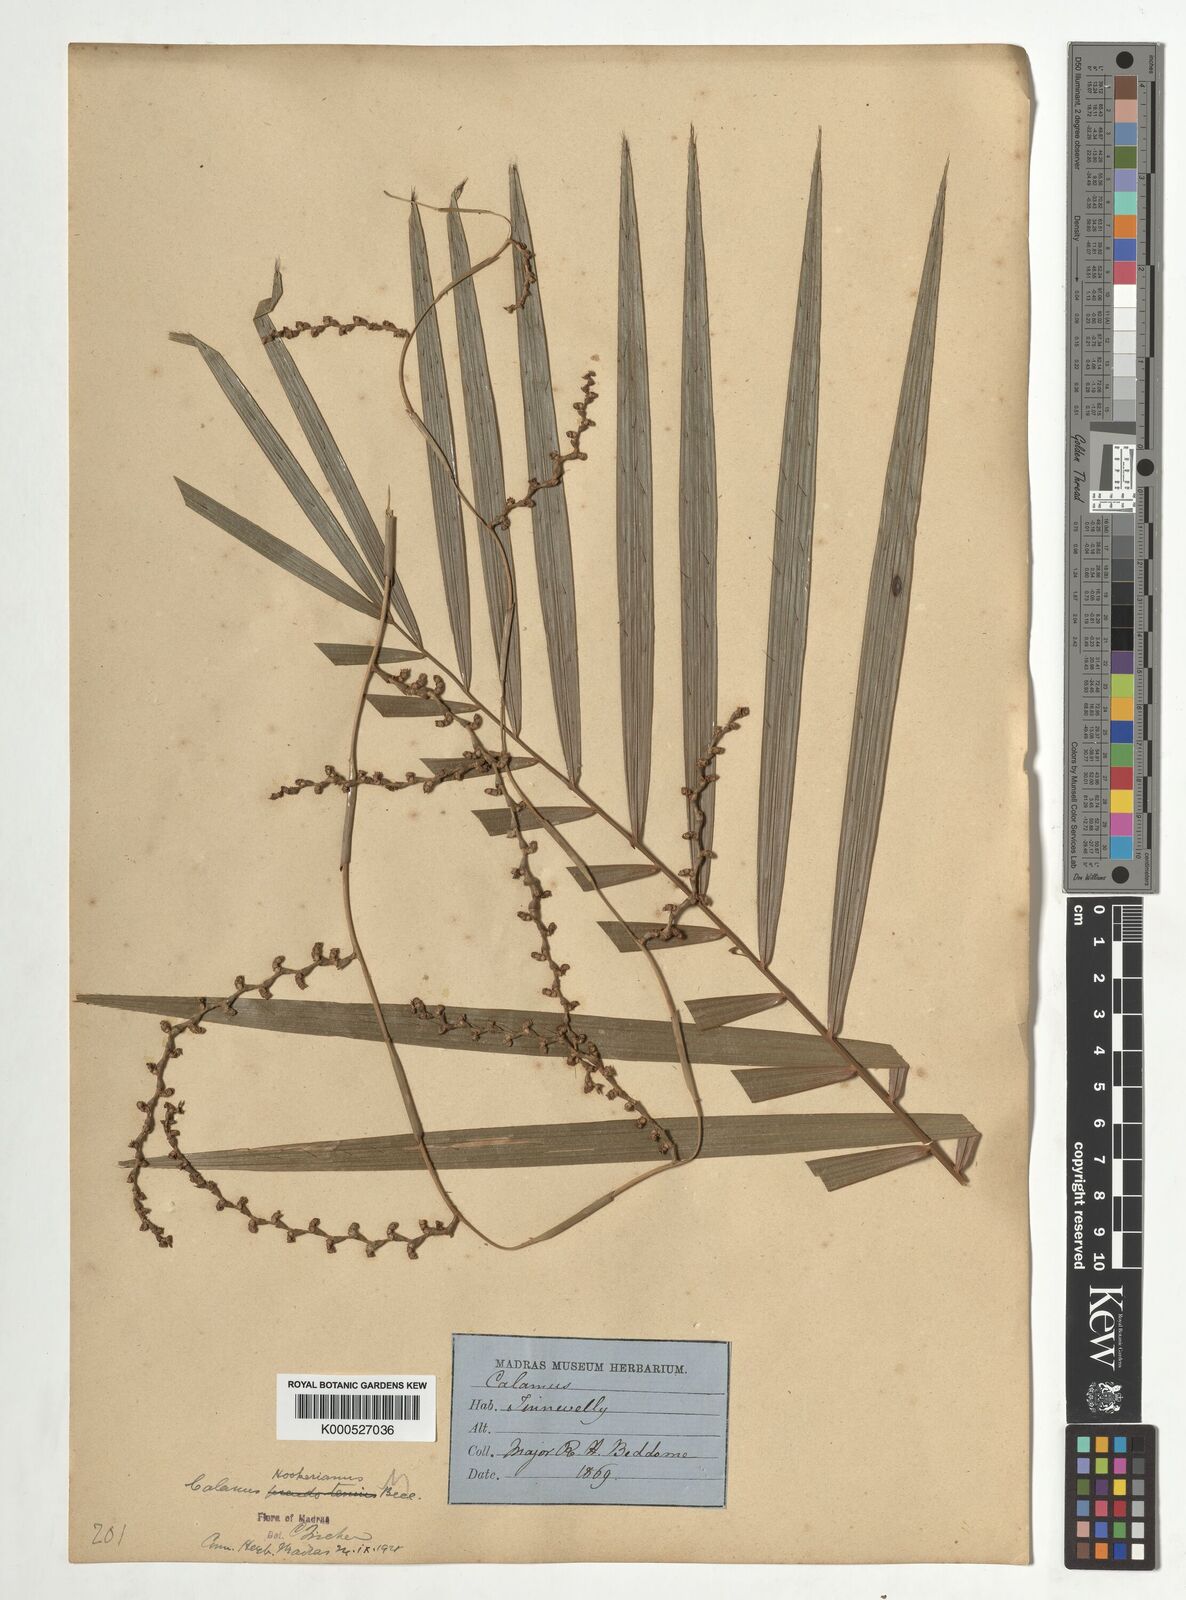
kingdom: Plantae
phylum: Tracheophyta
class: Liliopsida
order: Arecales
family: Arecaceae
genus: Calamus
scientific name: Calamus hookerianus
